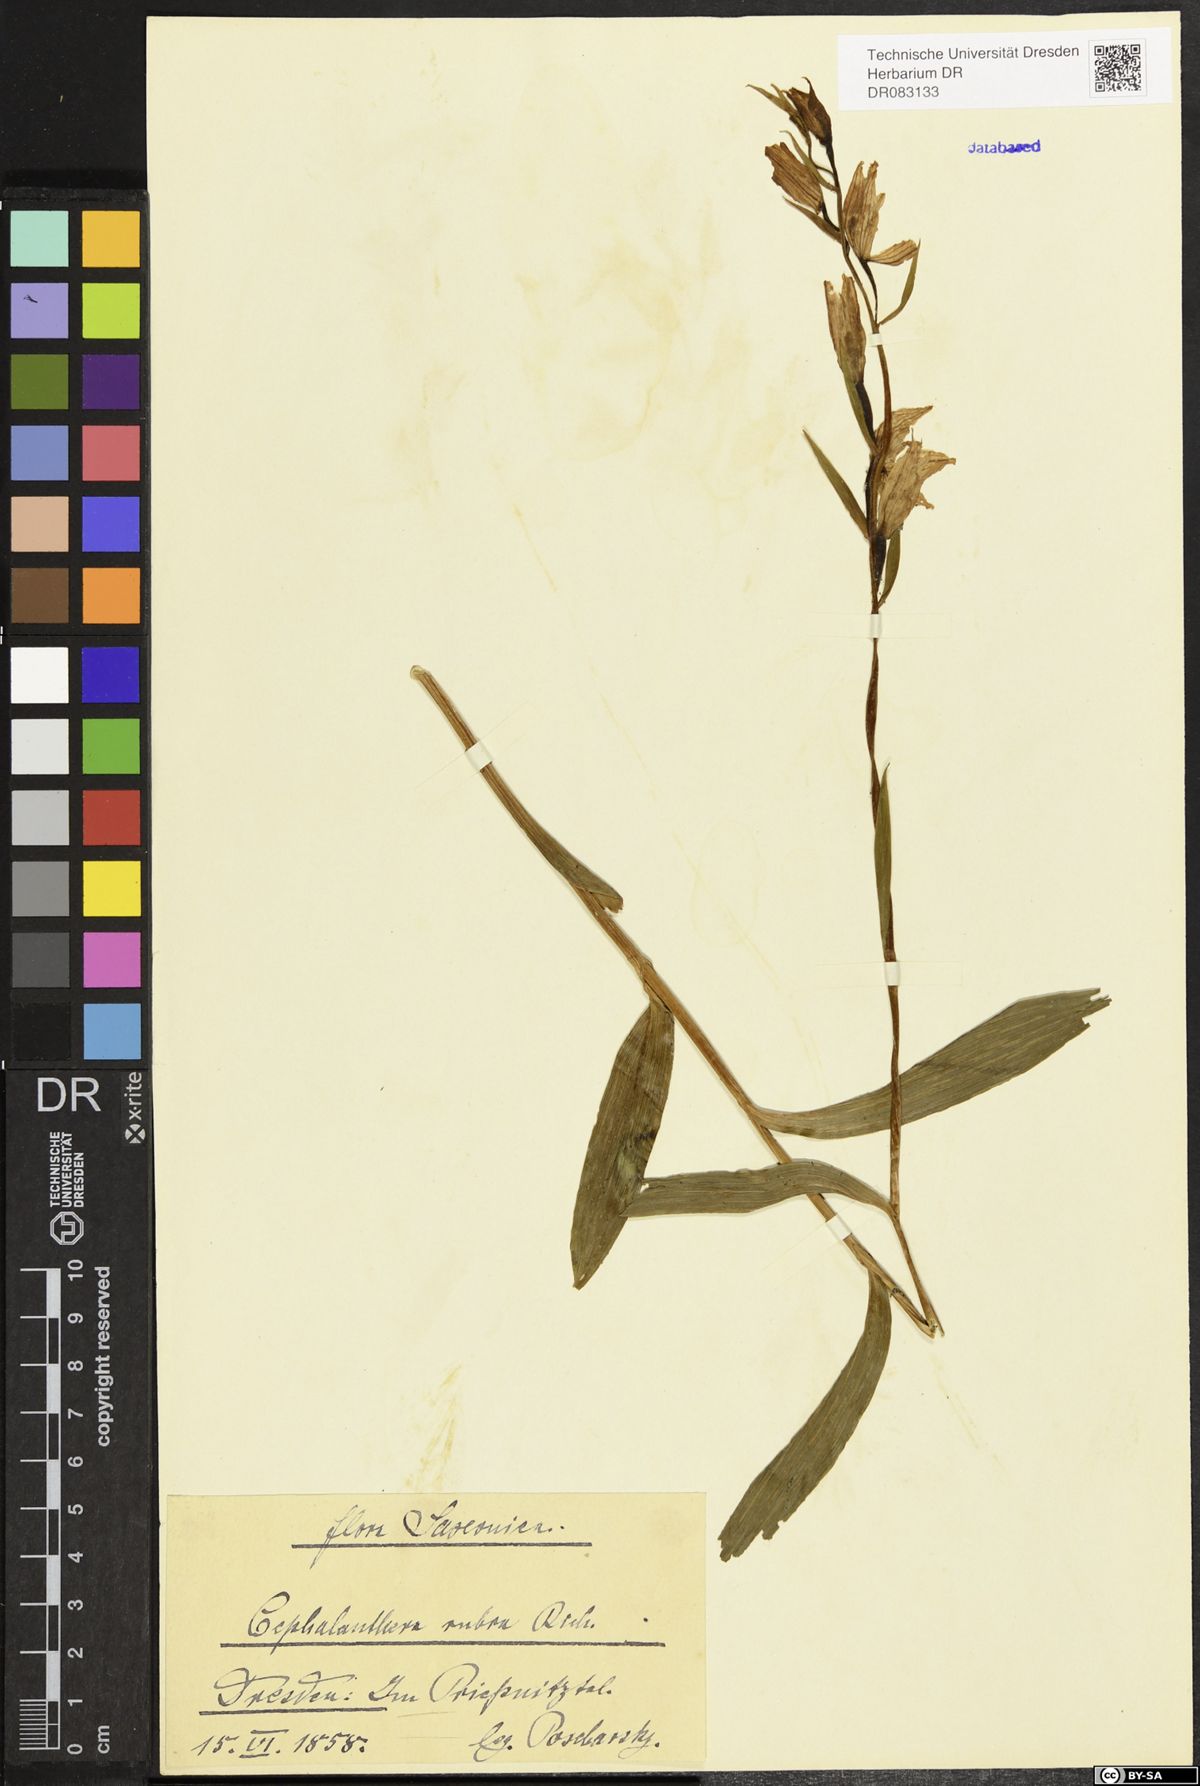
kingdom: Plantae
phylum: Tracheophyta
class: Liliopsida
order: Asparagales
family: Orchidaceae
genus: Cephalanthera
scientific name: Cephalanthera rubra
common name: Red helleborine
